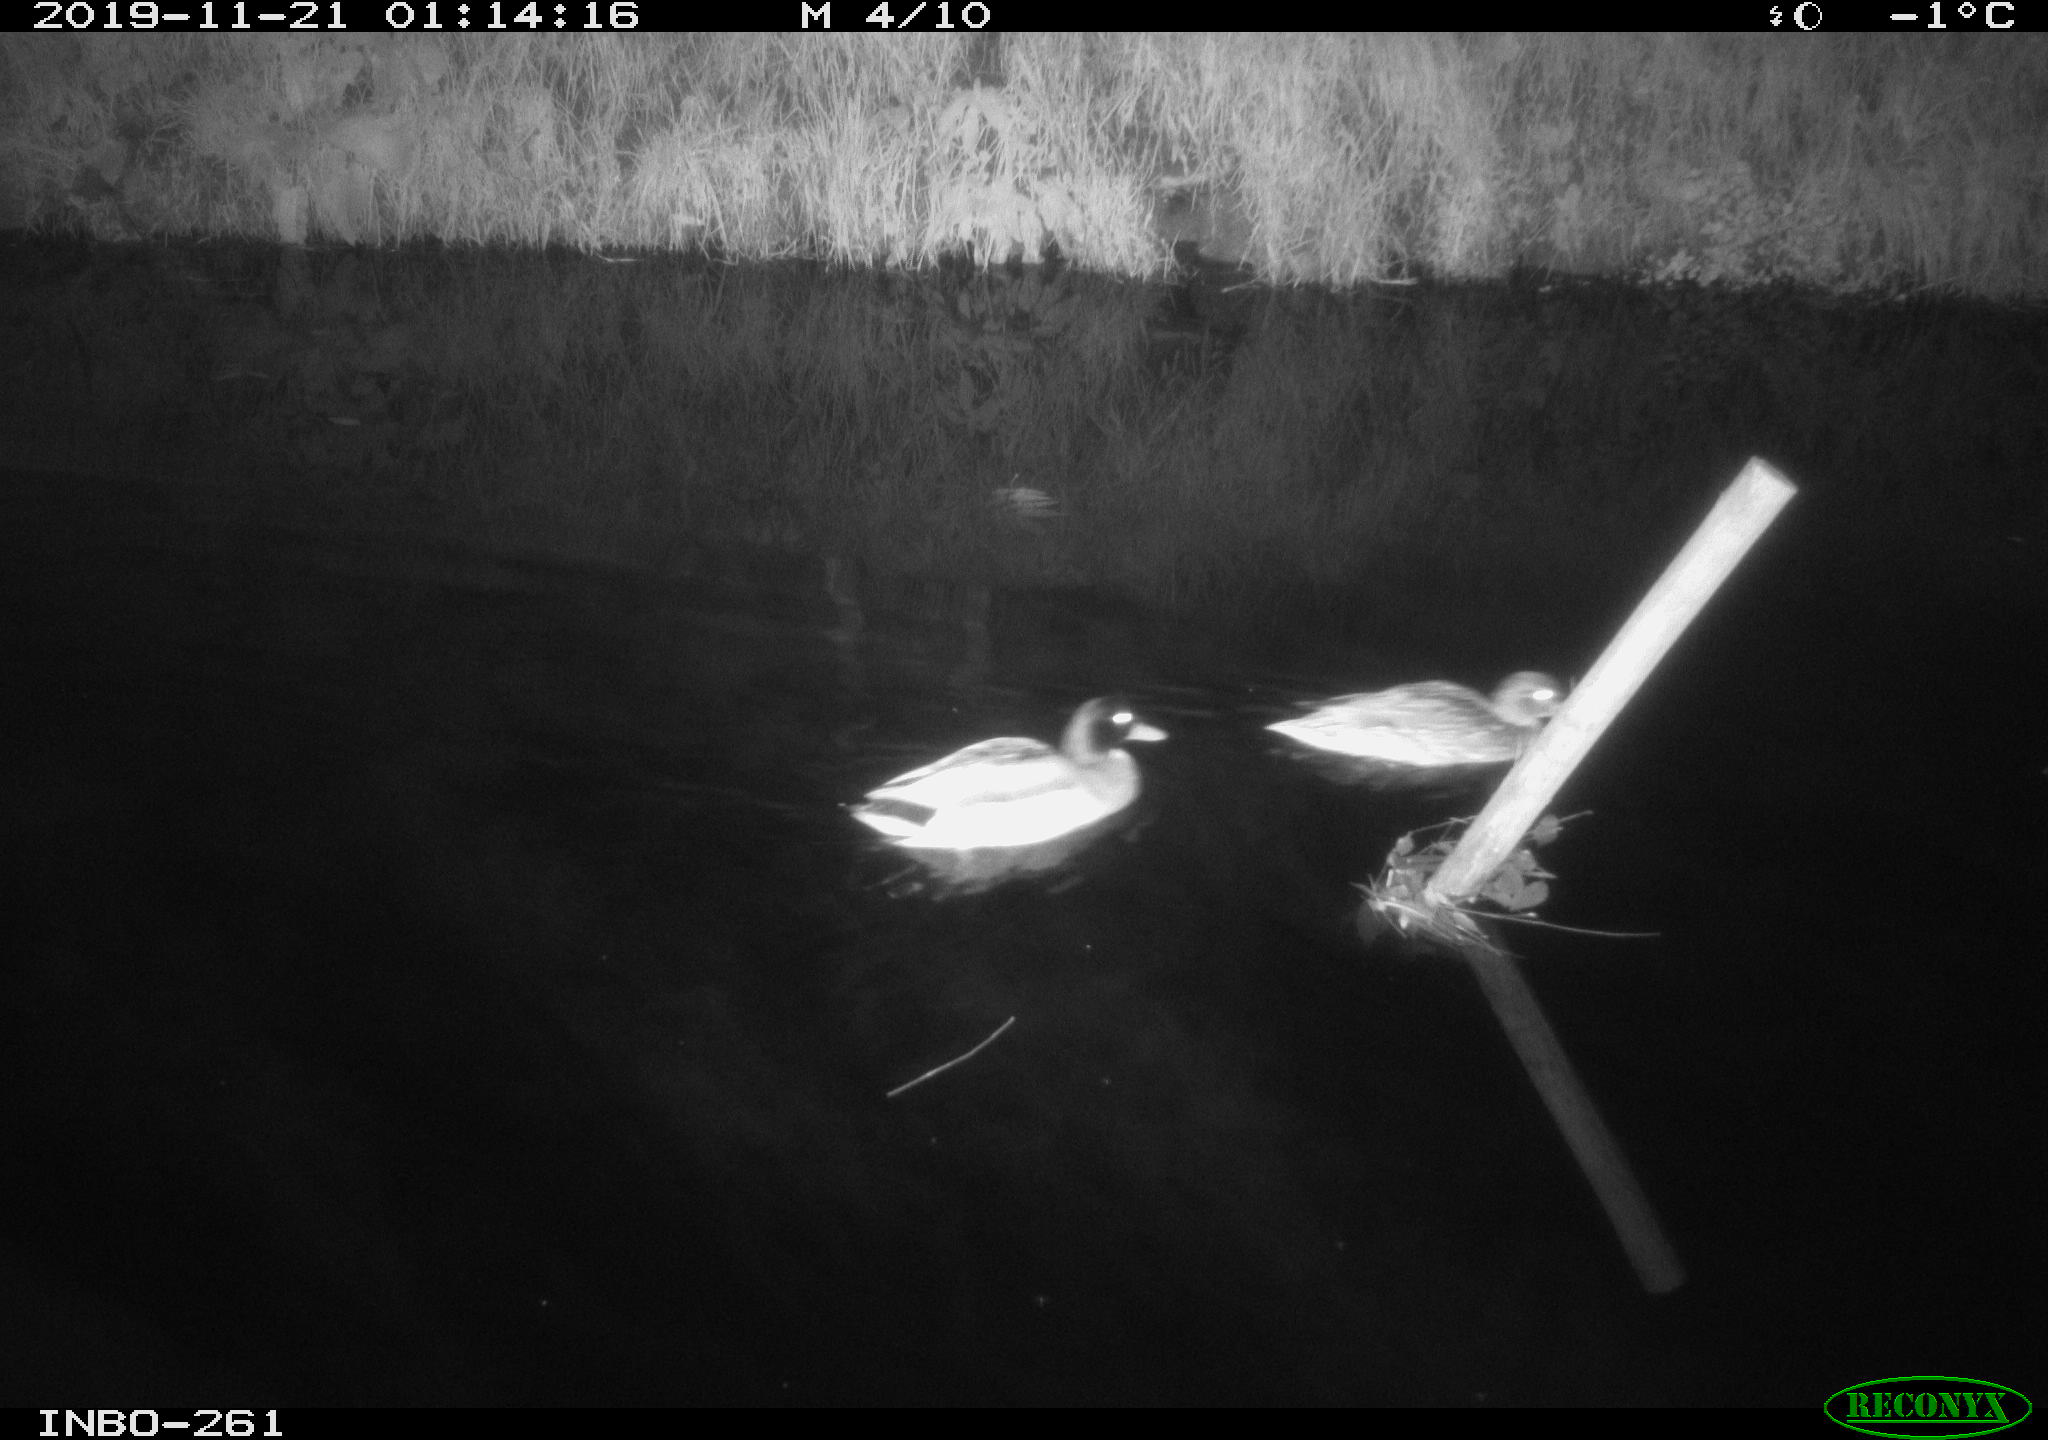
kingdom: Animalia
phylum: Chordata
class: Aves
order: Anseriformes
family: Anatidae
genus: Anas
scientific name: Anas platyrhynchos
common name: Mallard
